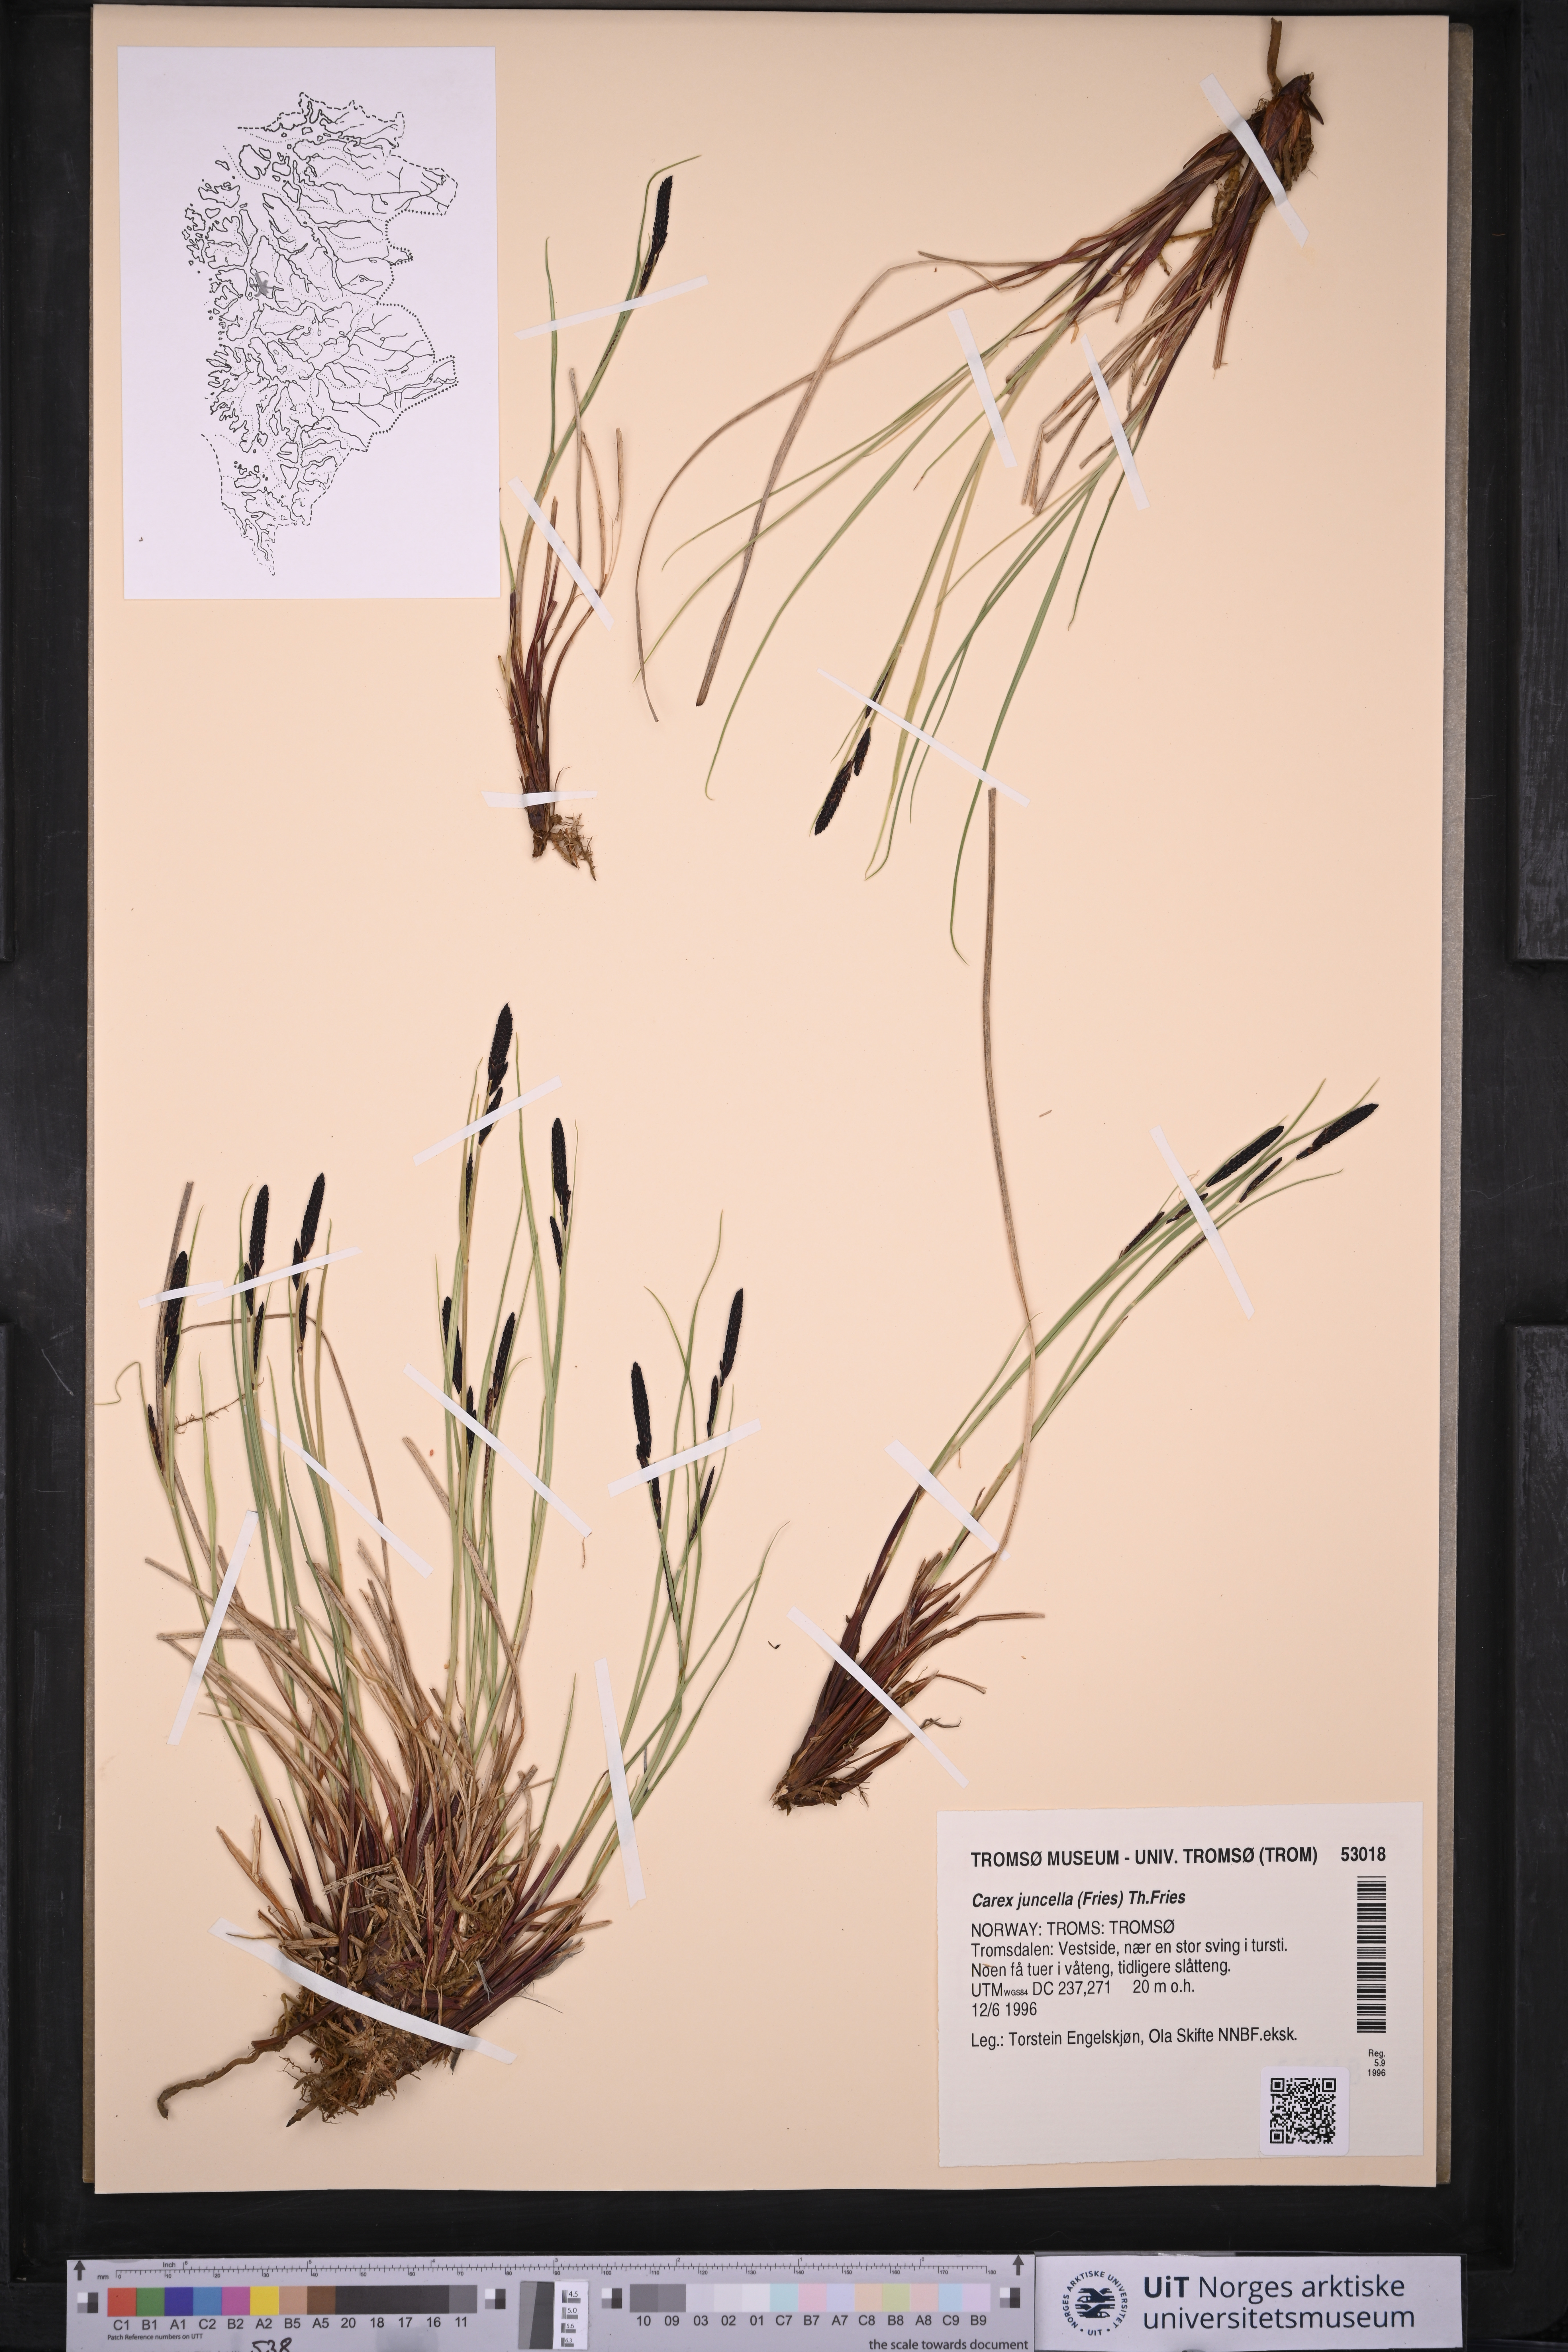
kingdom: Plantae
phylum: Tracheophyta
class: Liliopsida
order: Poales
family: Cyperaceae
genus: Carex
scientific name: Carex nigra
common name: Common sedge
